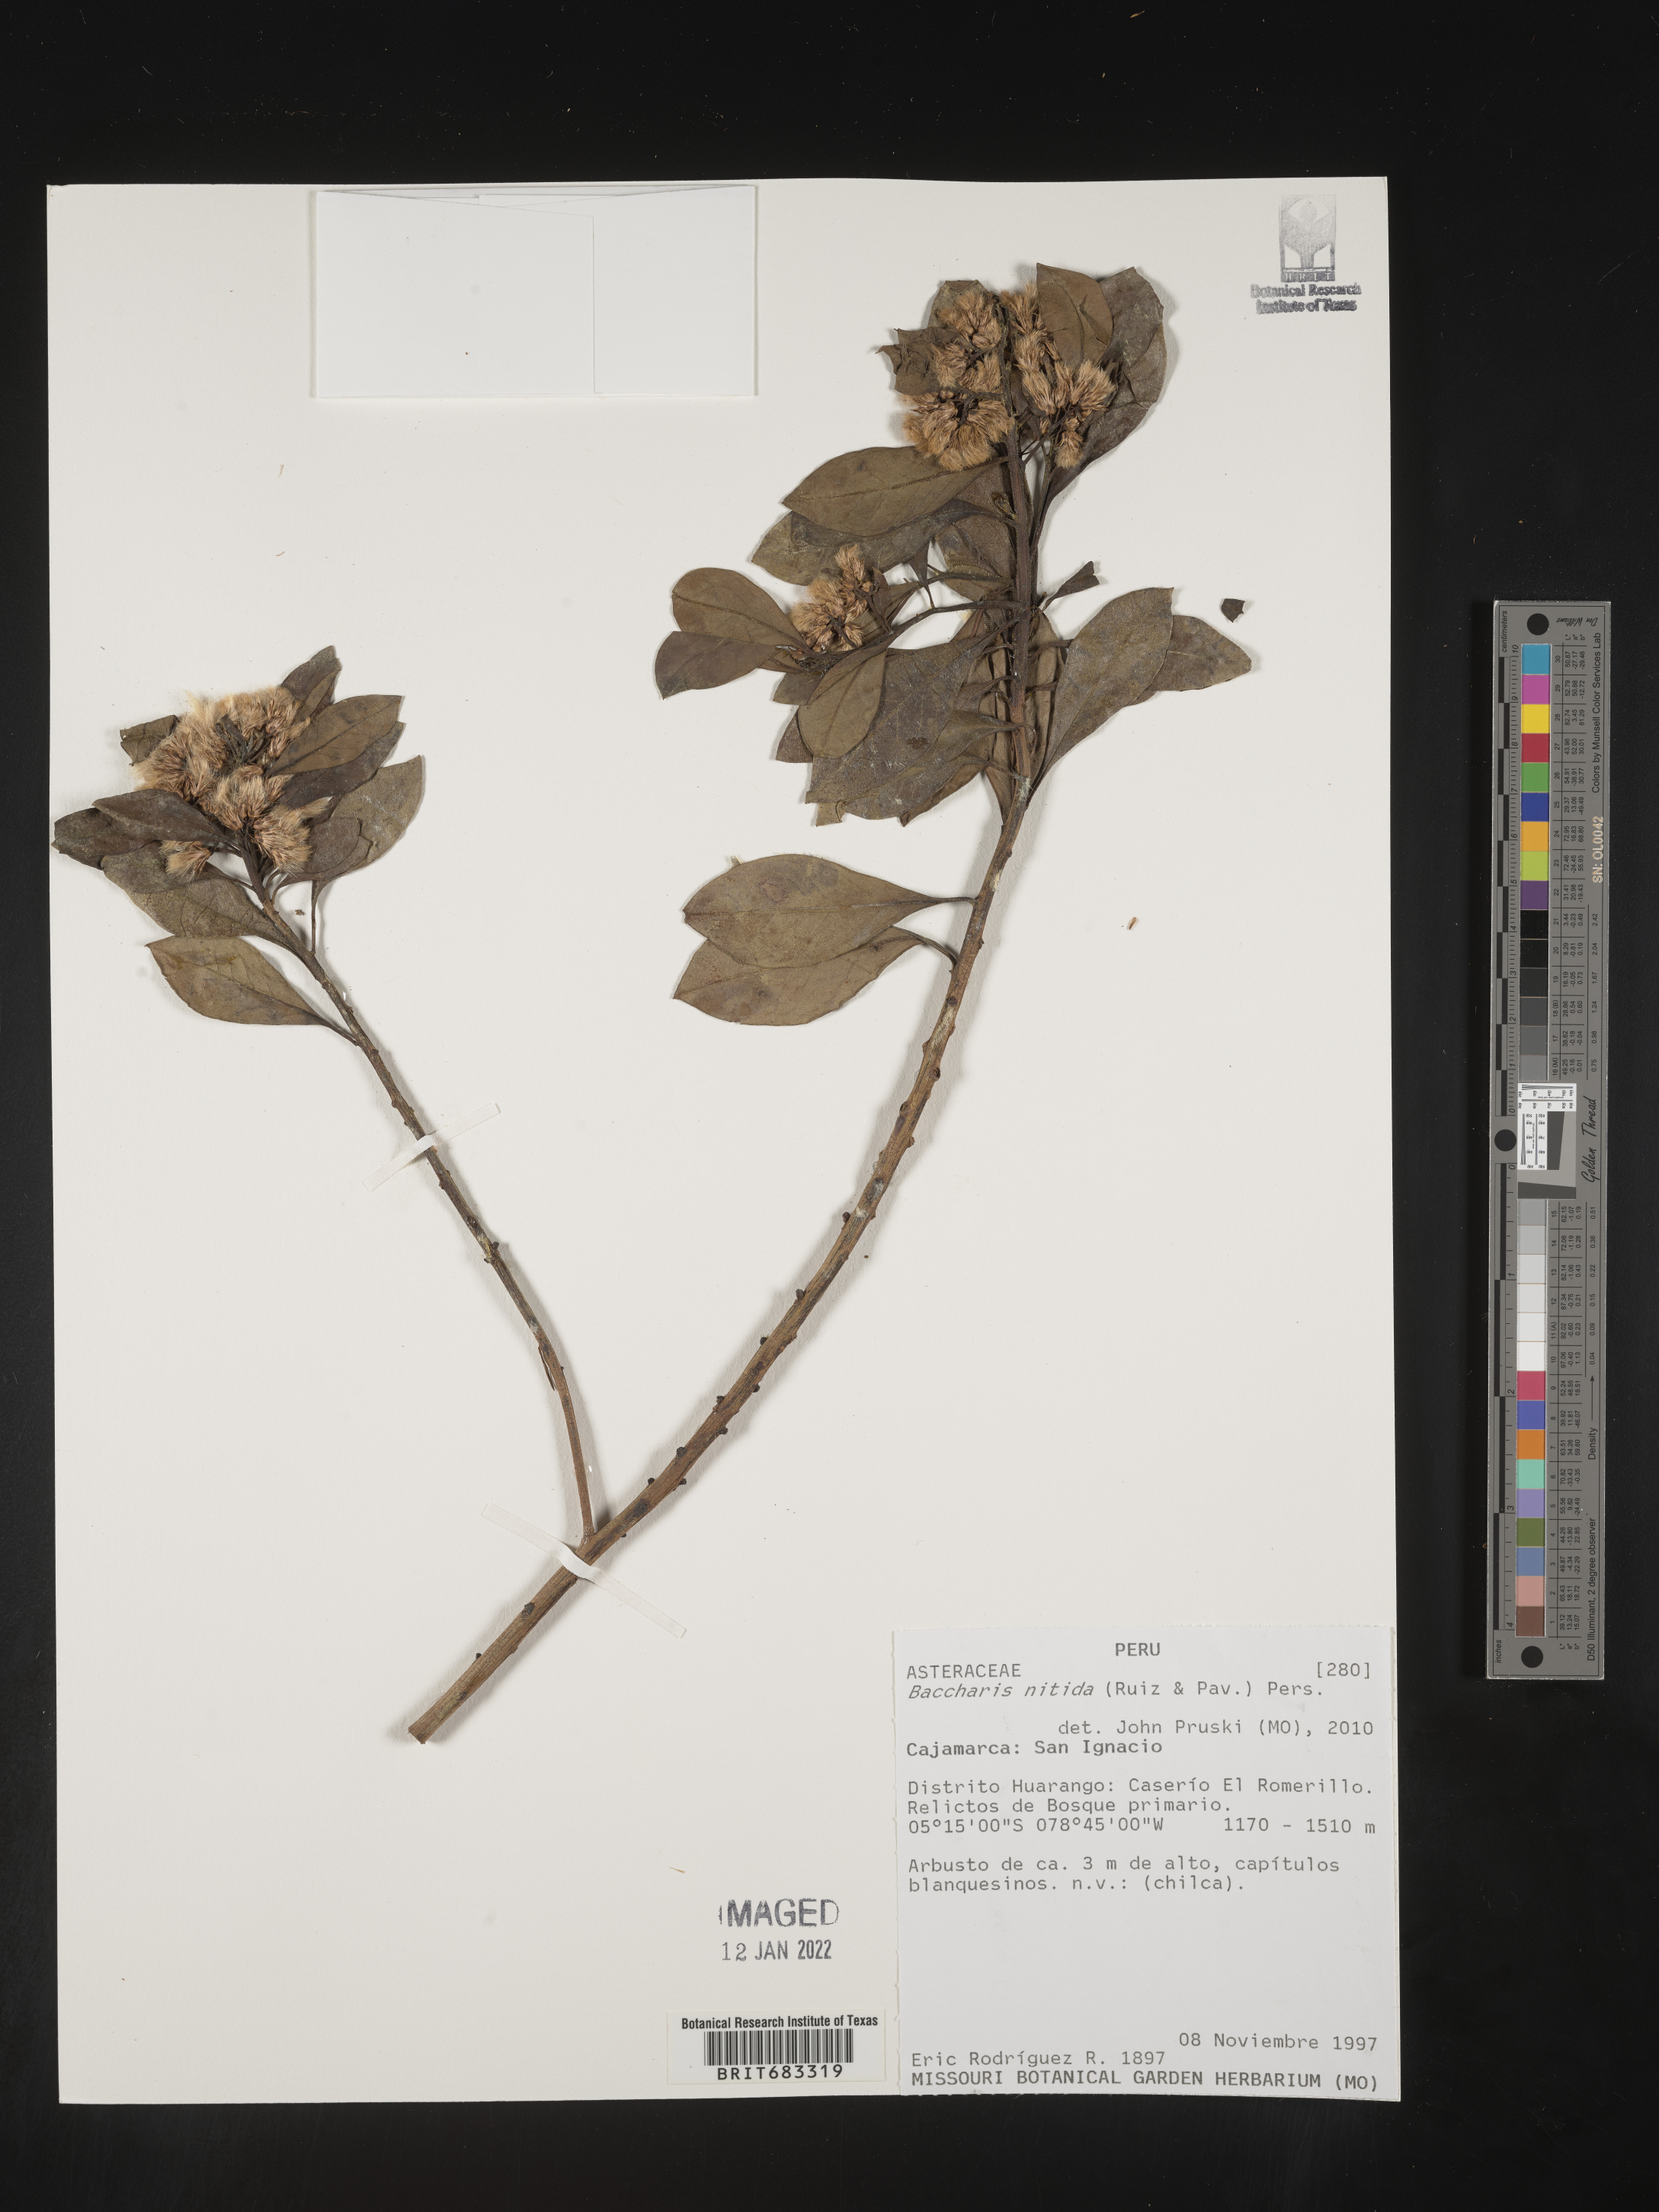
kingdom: Plantae
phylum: Tracheophyta
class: Magnoliopsida
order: Asterales
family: Asteraceae
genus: Baccharis
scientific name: Baccharis
